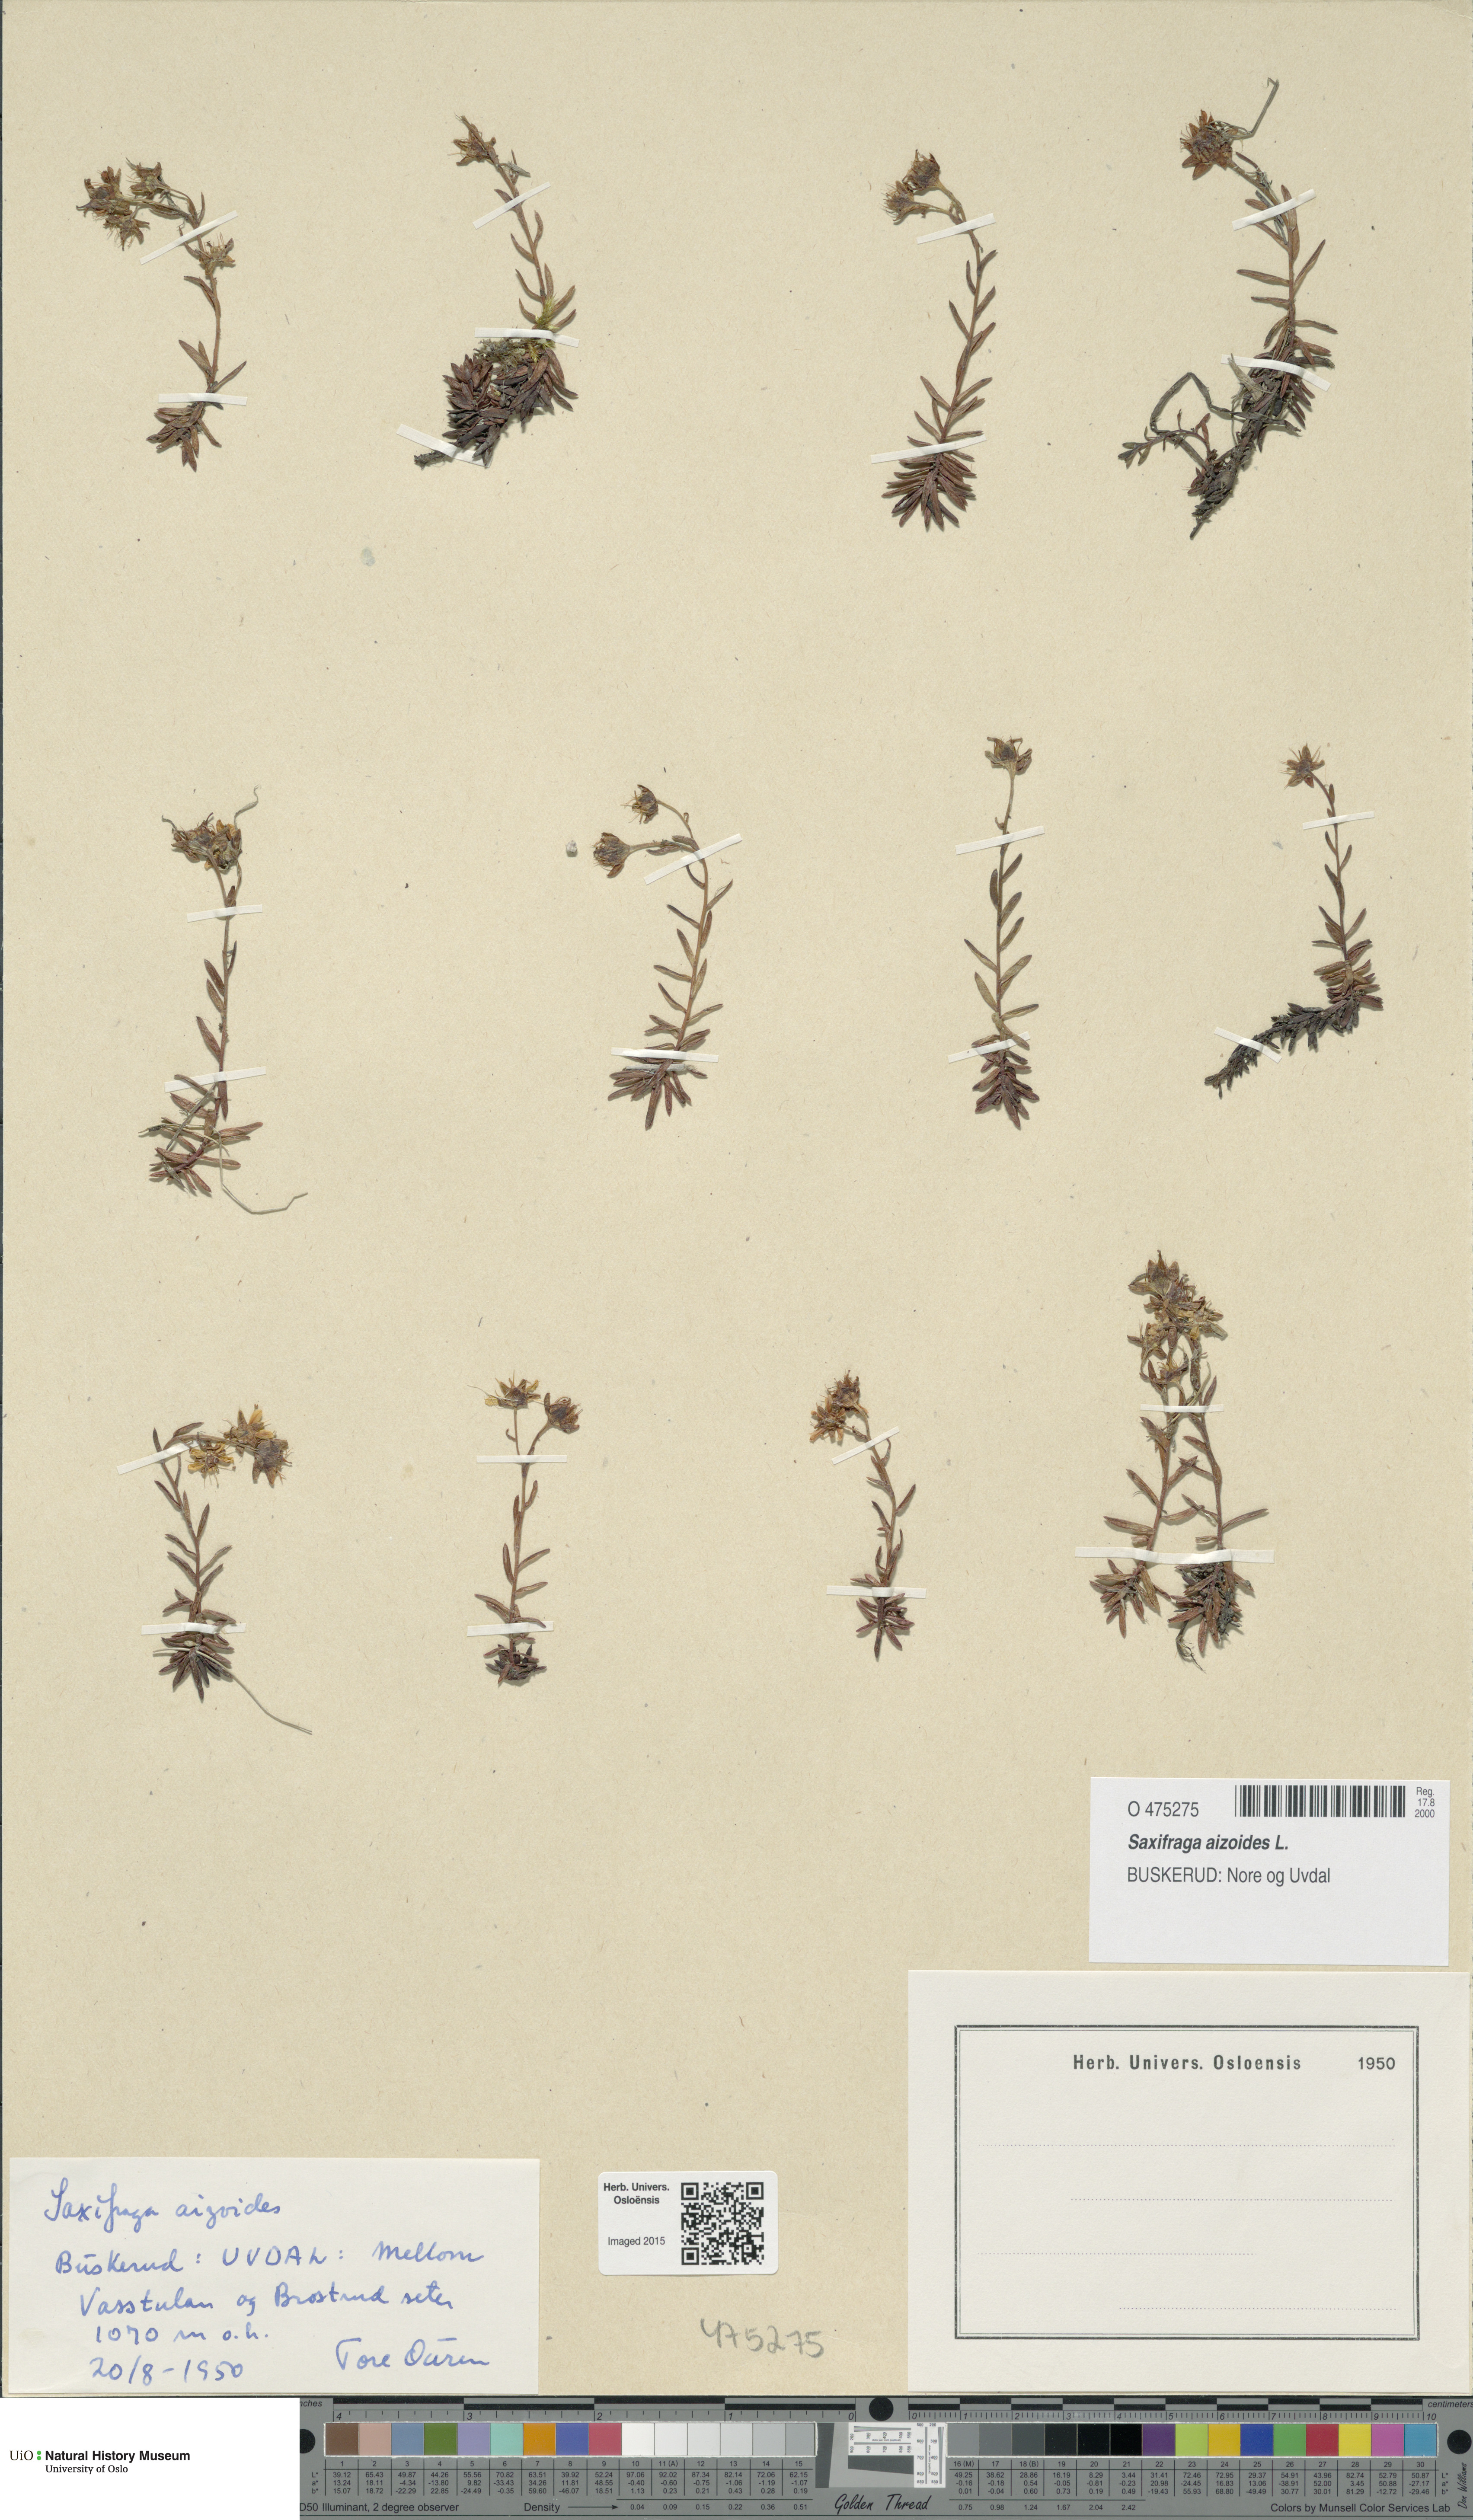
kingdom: Plantae
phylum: Tracheophyta
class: Magnoliopsida
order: Saxifragales
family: Saxifragaceae
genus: Saxifraga
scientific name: Saxifraga aizoides
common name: Yellow mountain saxifrage
